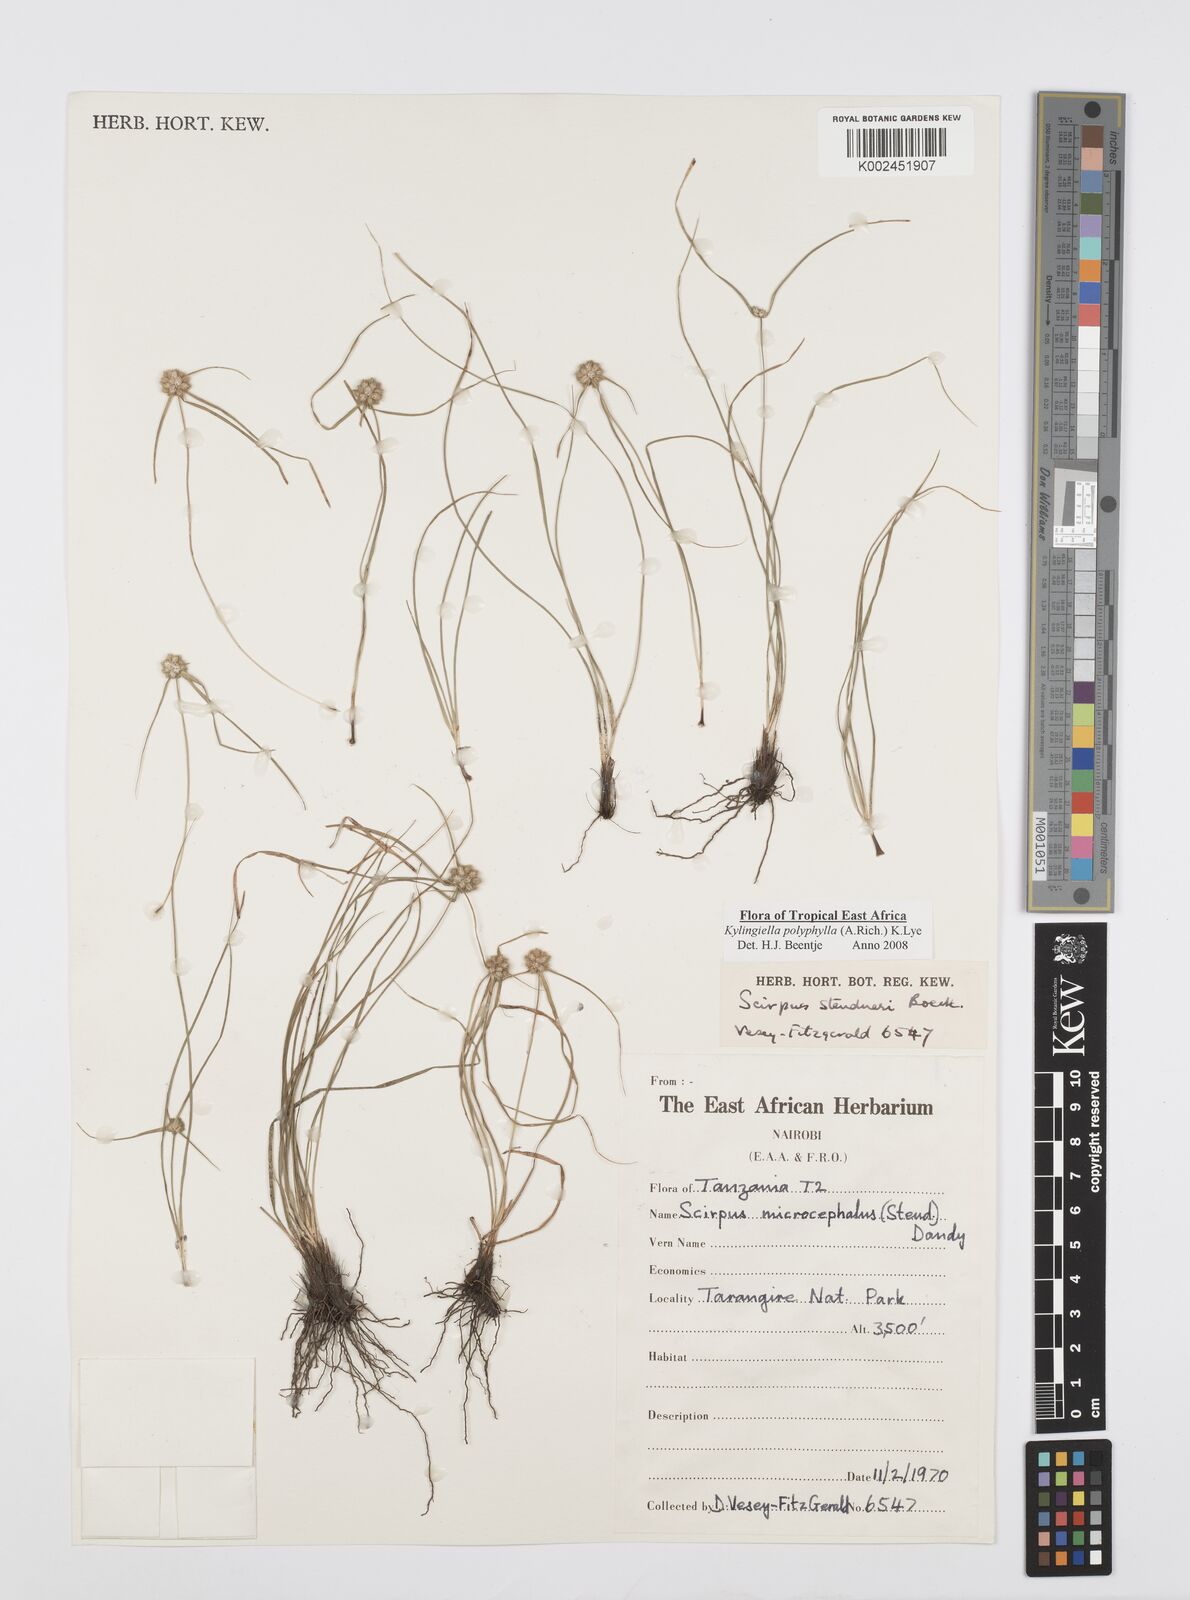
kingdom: Plantae
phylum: Tracheophyta
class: Liliopsida
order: Poales
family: Cyperaceae
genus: Cyperus
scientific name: Cyperus bulbosus
